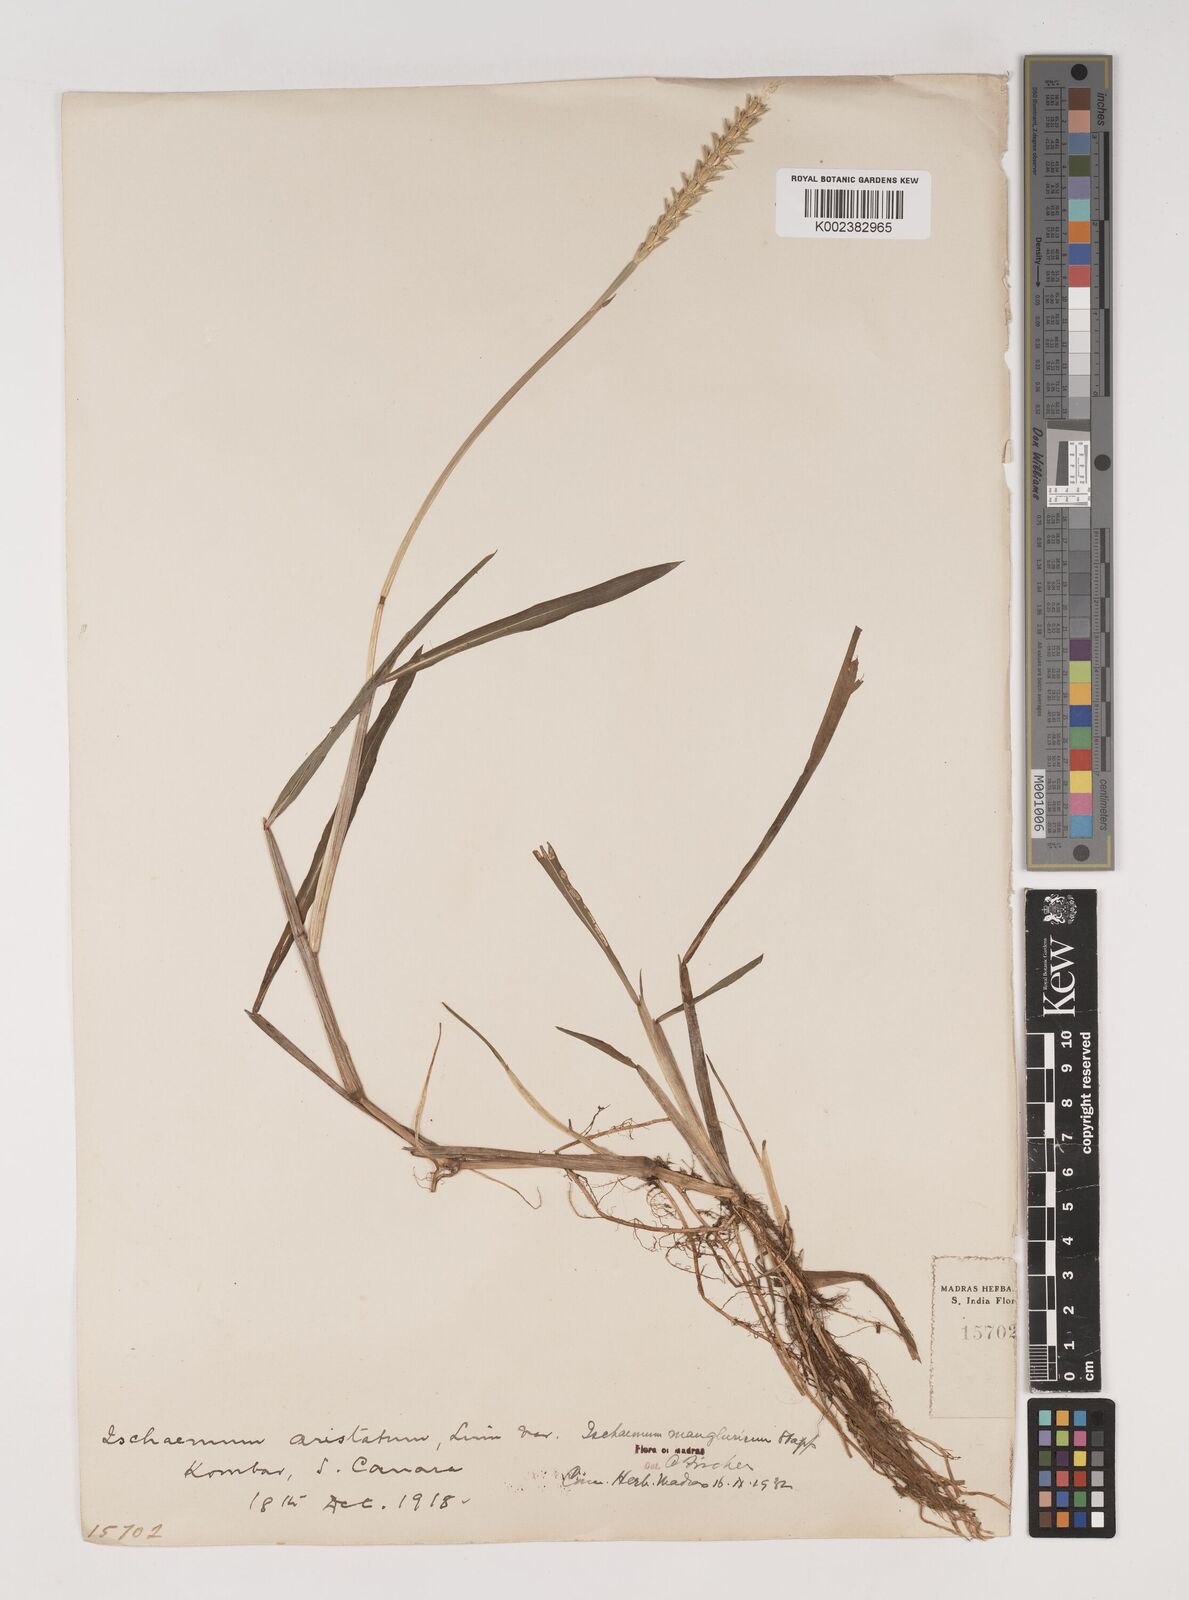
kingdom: Plantae
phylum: Tracheophyta
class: Liliopsida
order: Poales
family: Poaceae
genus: Ischaemum
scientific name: Ischaemum barbatum
